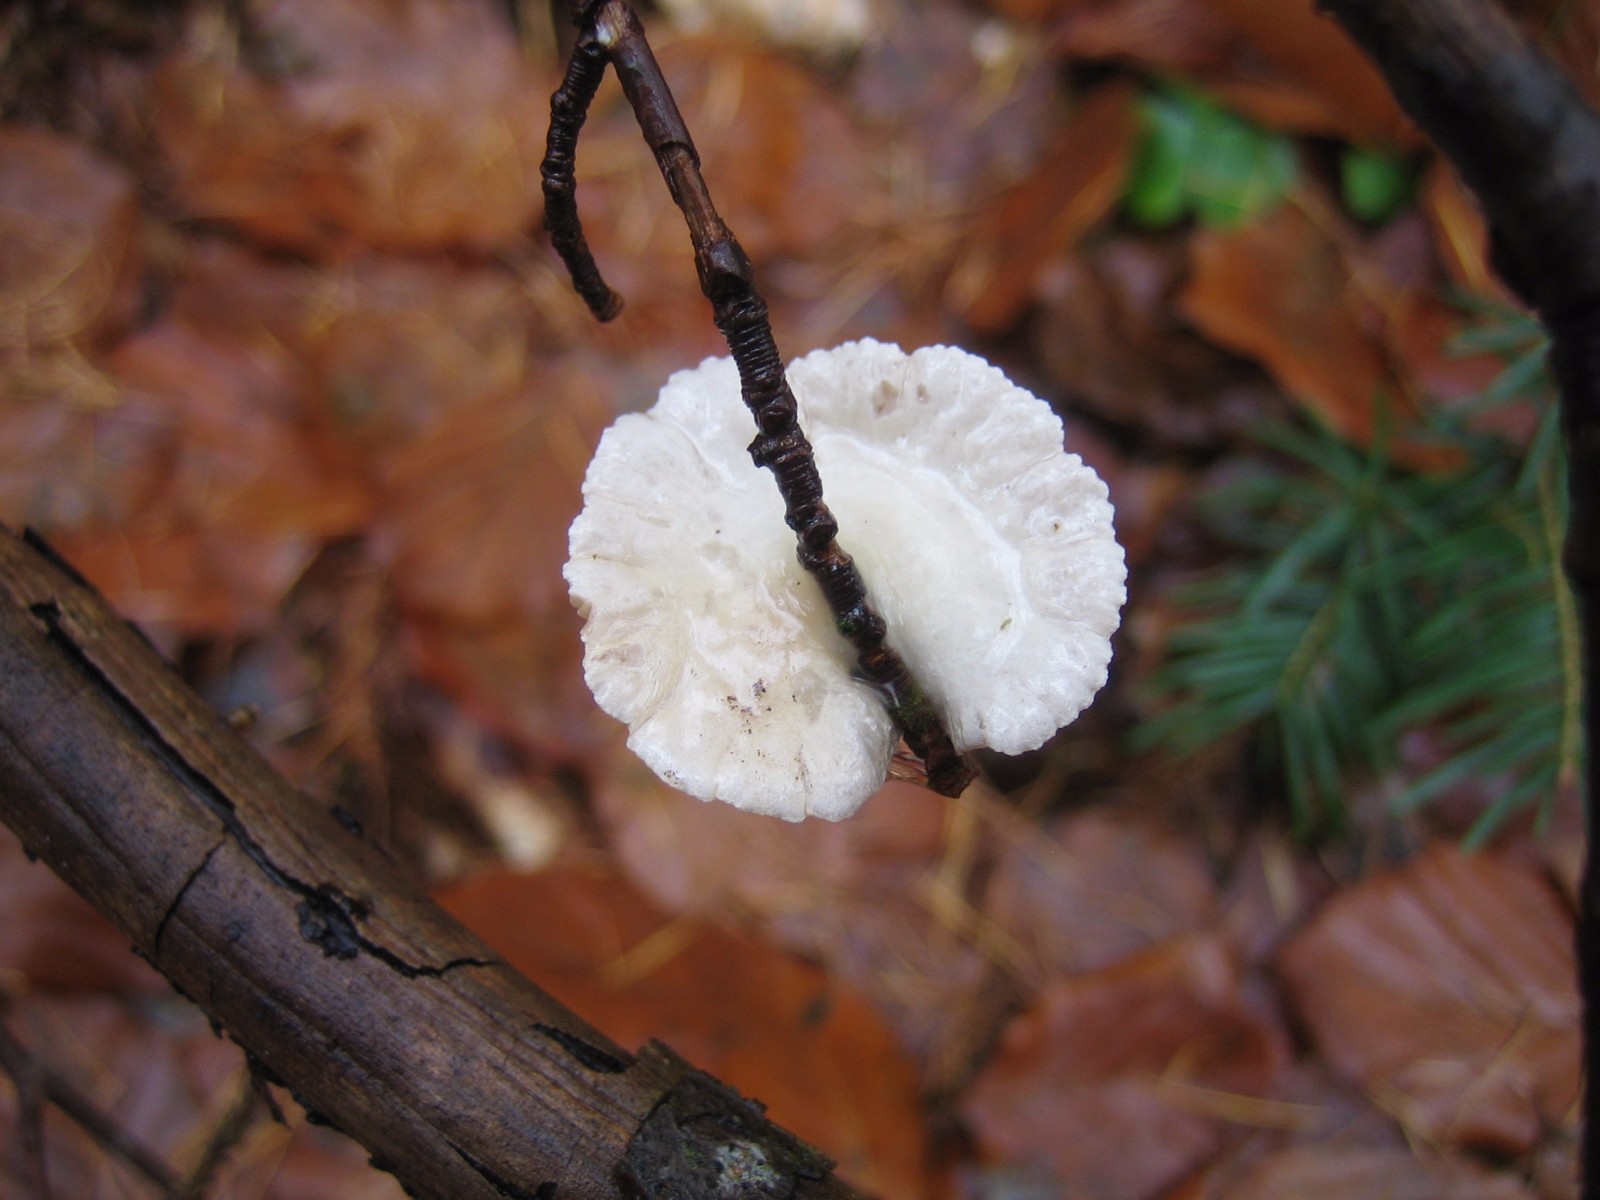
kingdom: Fungi
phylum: Basidiomycota
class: Agaricomycetes
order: Agaricales
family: Crepidotaceae
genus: Crepidotus
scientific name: Crepidotus
